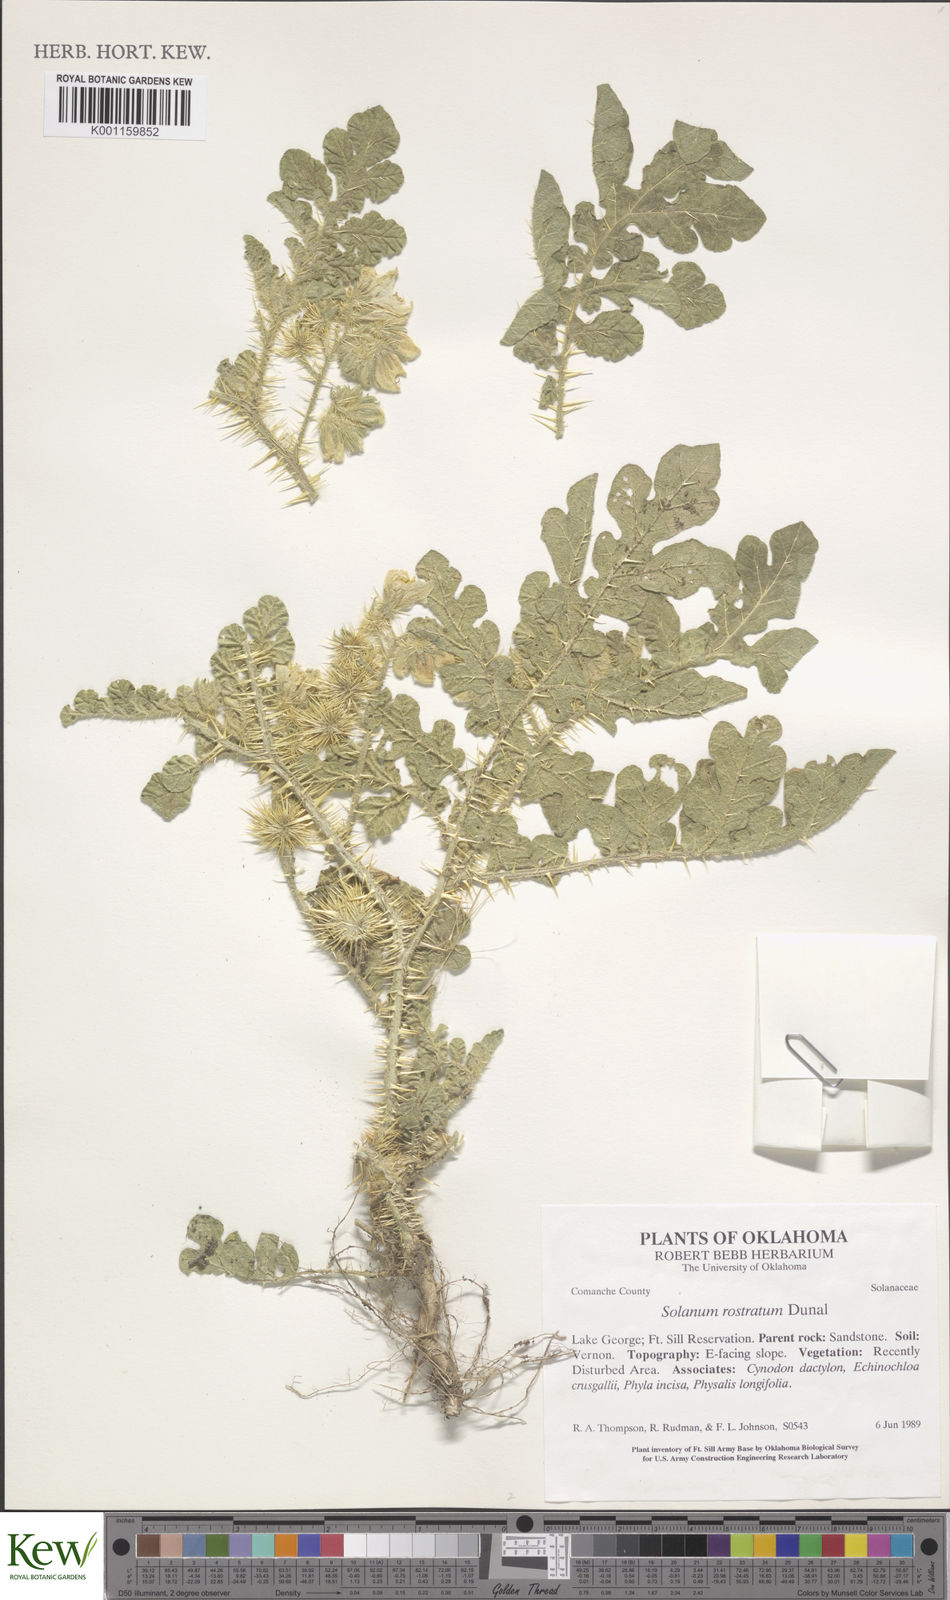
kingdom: Plantae
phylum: Tracheophyta
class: Magnoliopsida
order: Solanales
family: Solanaceae
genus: Solanum
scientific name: Solanum angustifolium
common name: Buffalobur nightshade
